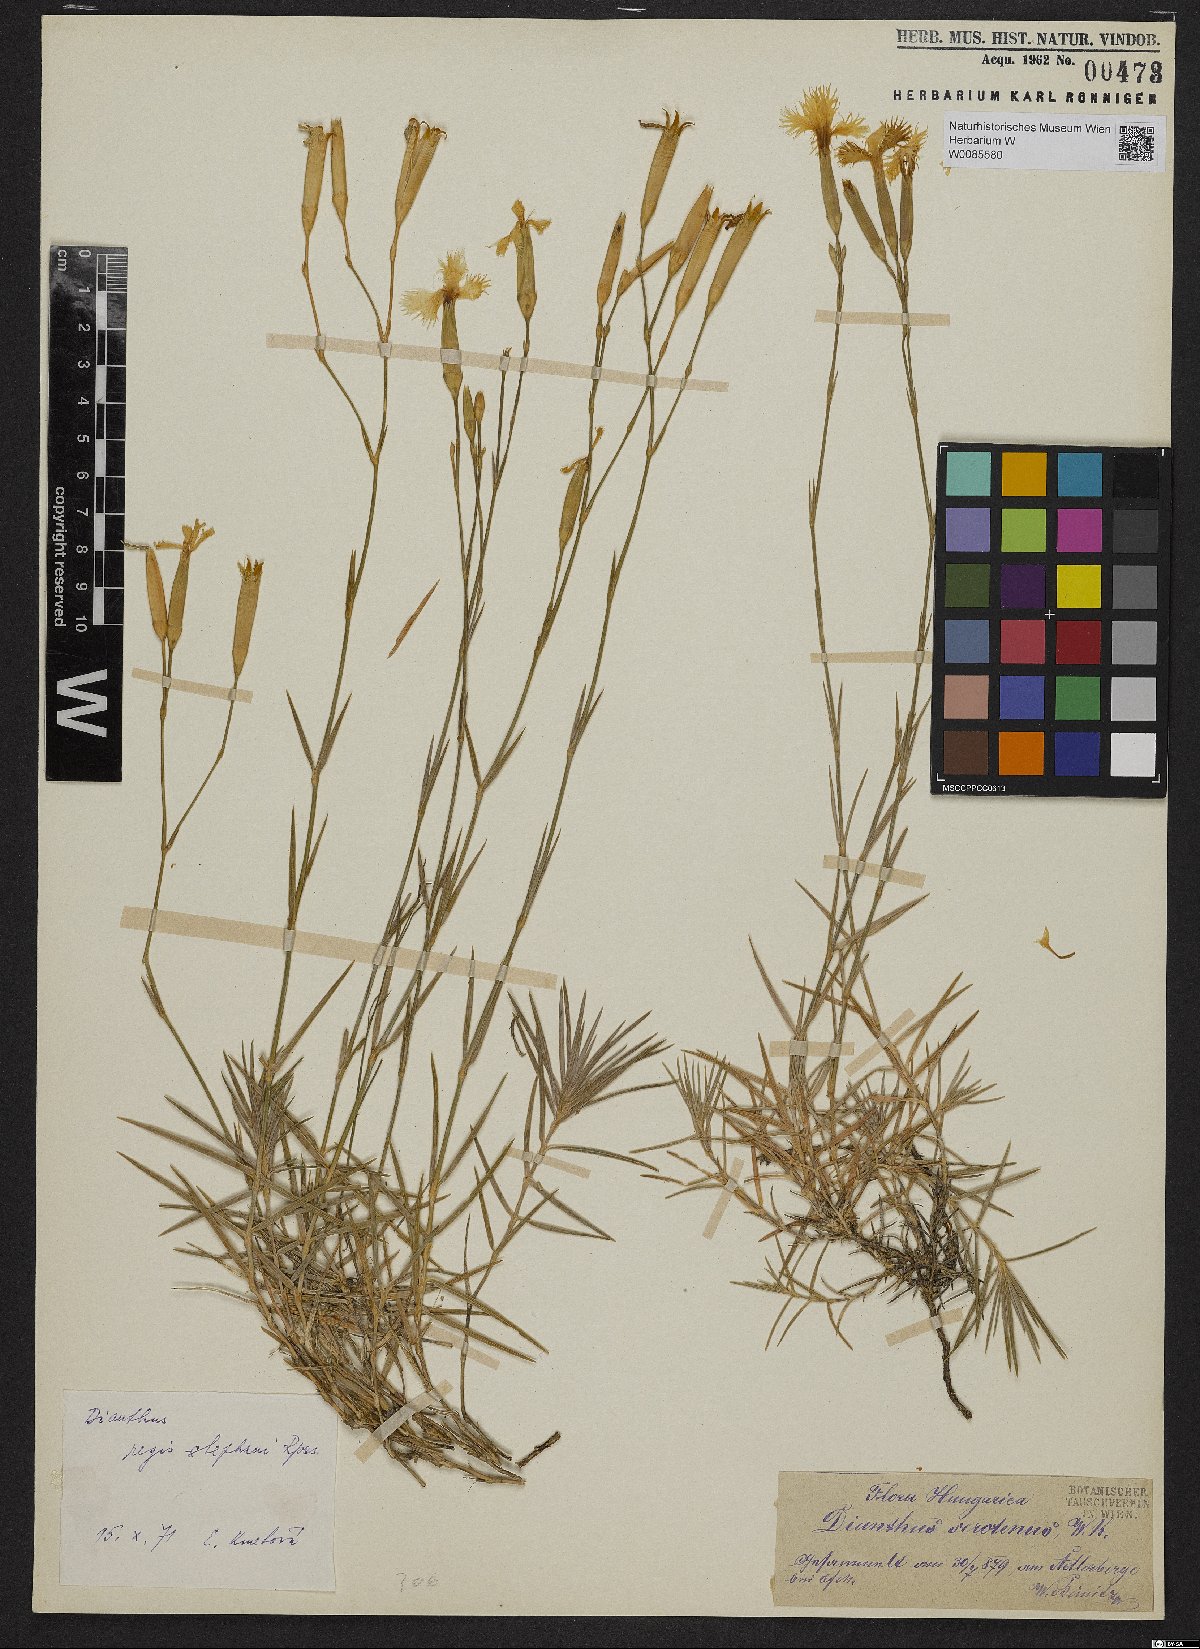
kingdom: Plantae
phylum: Tracheophyta
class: Magnoliopsida
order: Caryophyllales
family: Caryophyllaceae
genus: Dianthus
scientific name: Dianthus plumarius
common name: Pink
